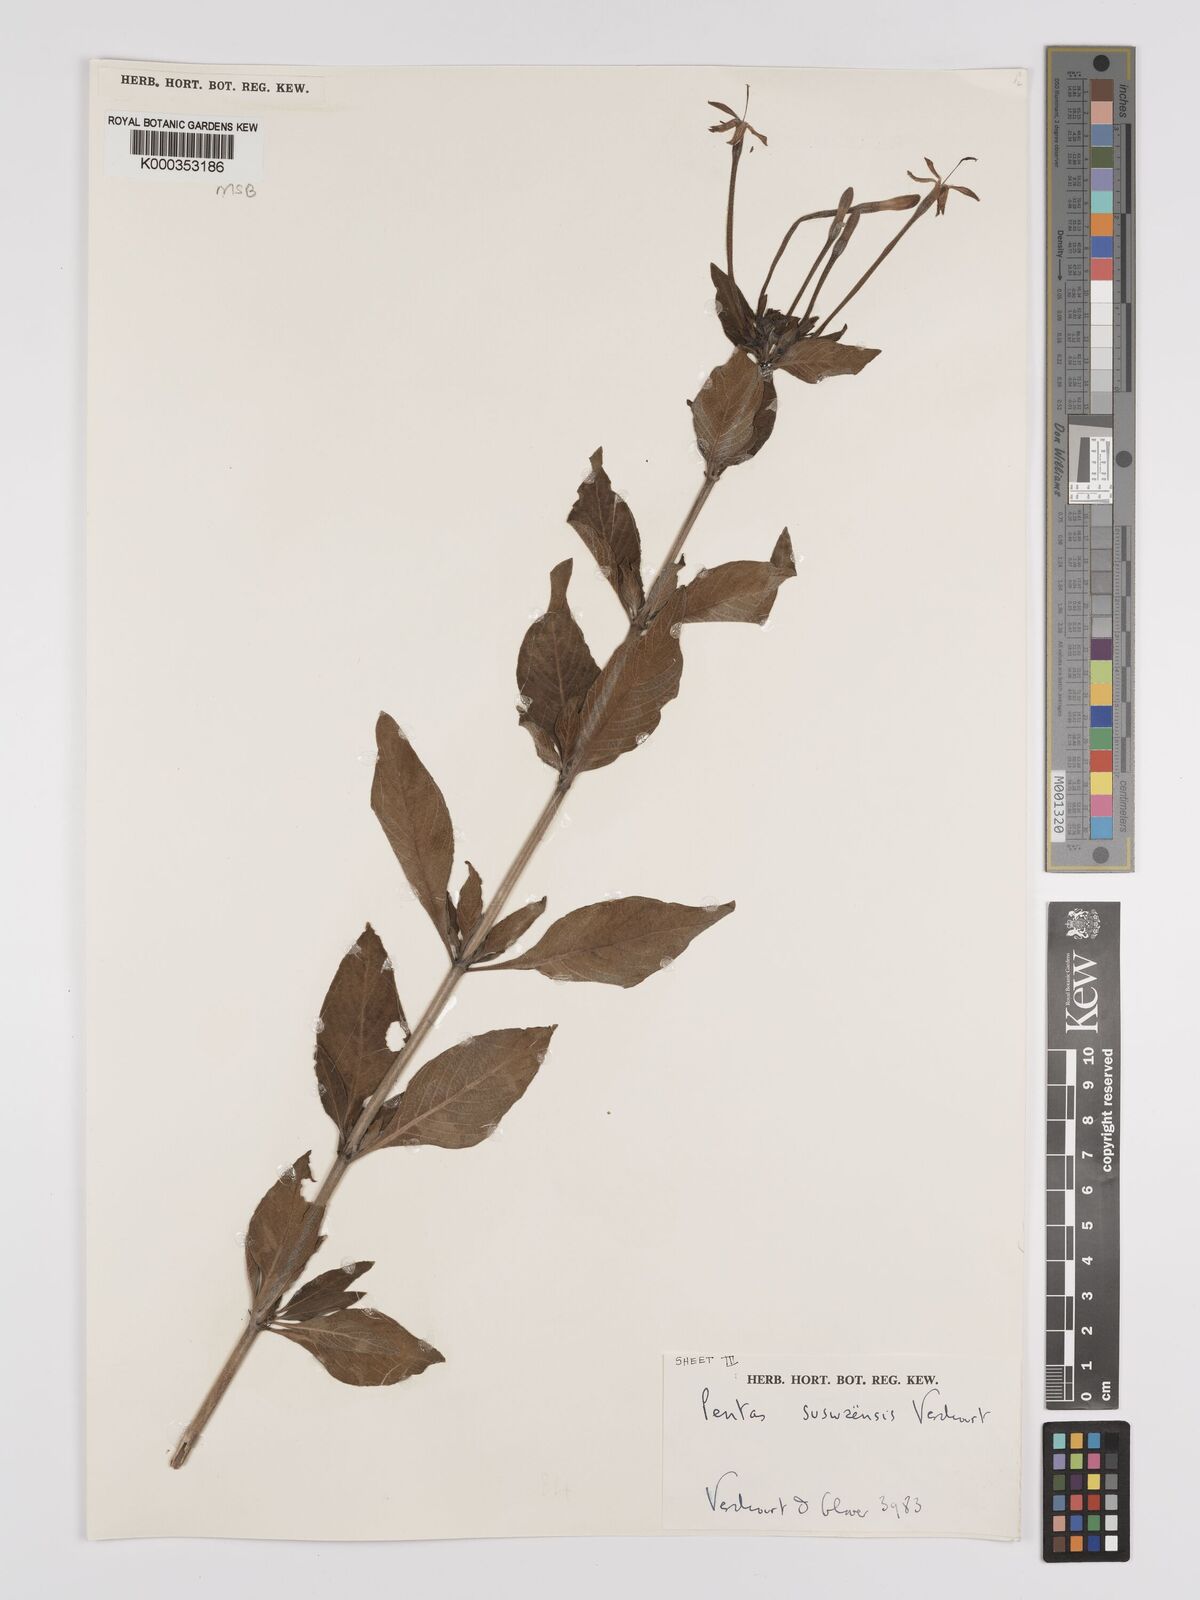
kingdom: Plantae
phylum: Tracheophyta
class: Magnoliopsida
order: Gentianales
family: Rubiaceae
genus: Pentas
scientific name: Pentas suswaensis
